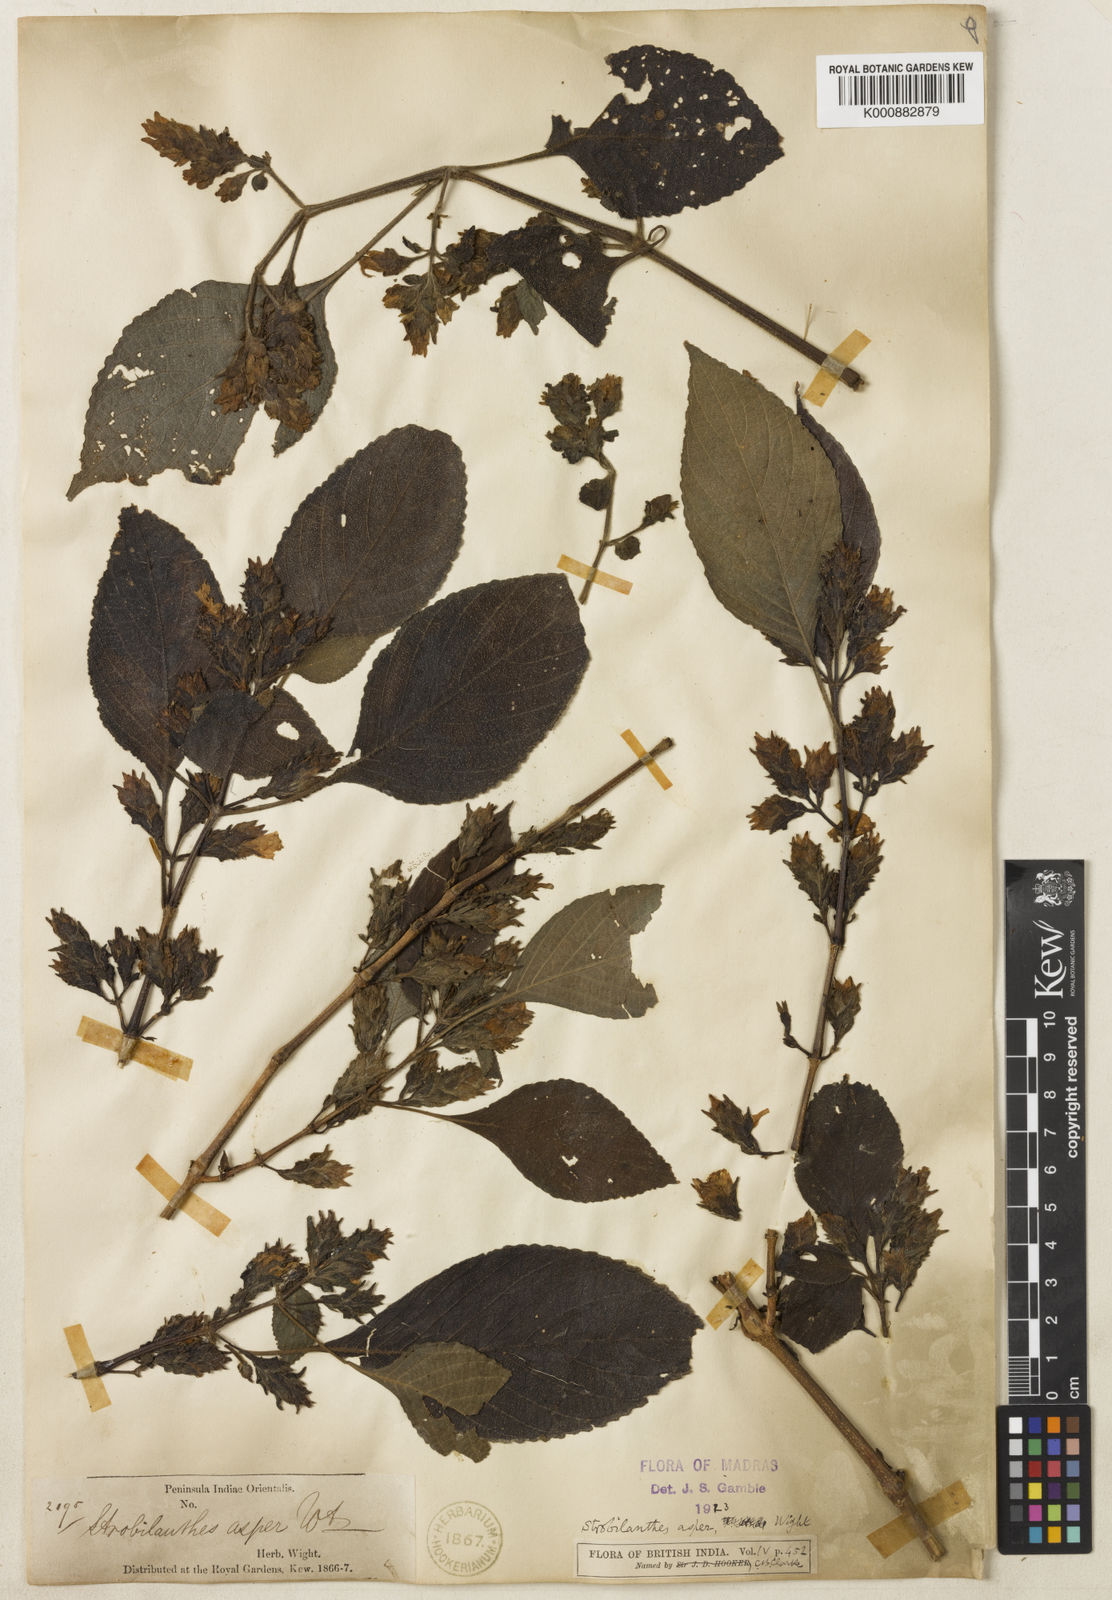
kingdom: Plantae
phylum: Tracheophyta
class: Magnoliopsida
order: Lamiales
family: Acanthaceae
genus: Strobilanthes
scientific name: Strobilanthes ciliata
